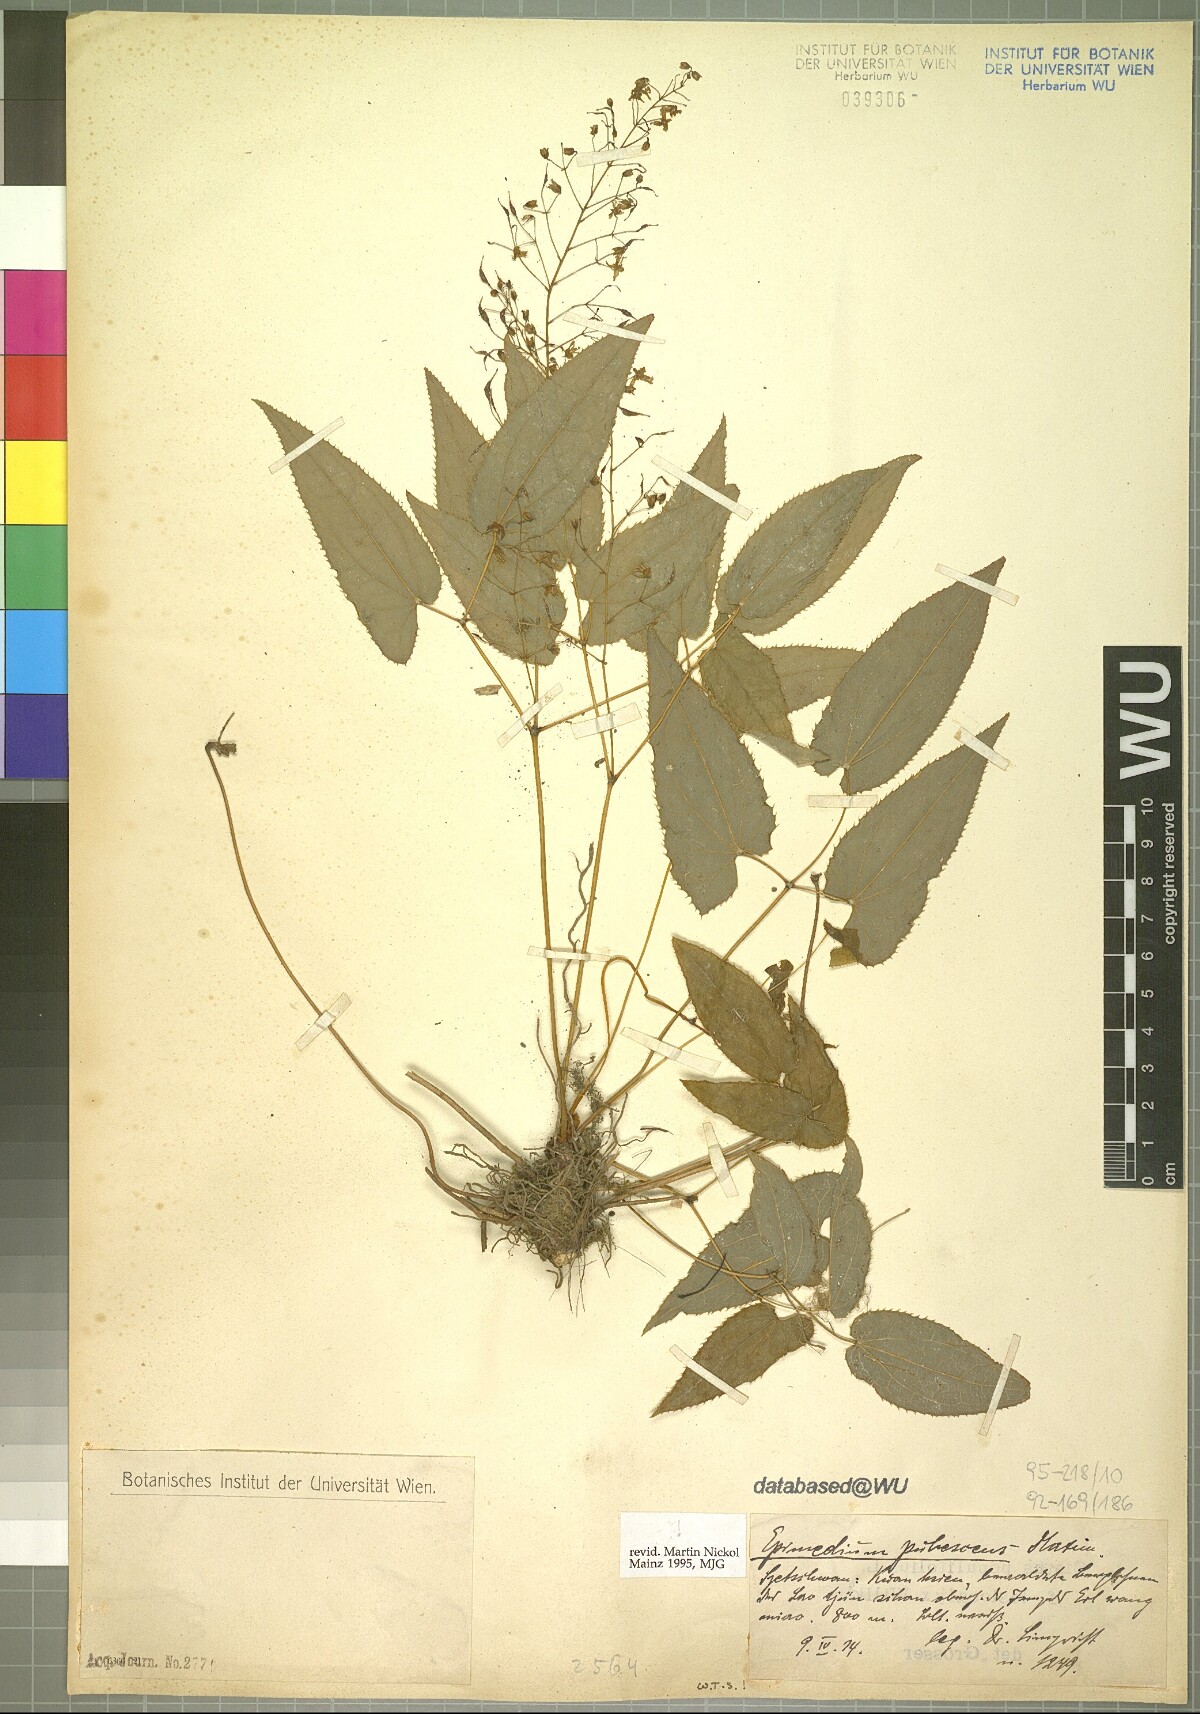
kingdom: Plantae
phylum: Tracheophyta
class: Magnoliopsida
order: Ranunculales
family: Berberidaceae
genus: Epimedium
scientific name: Epimedium pubescens
